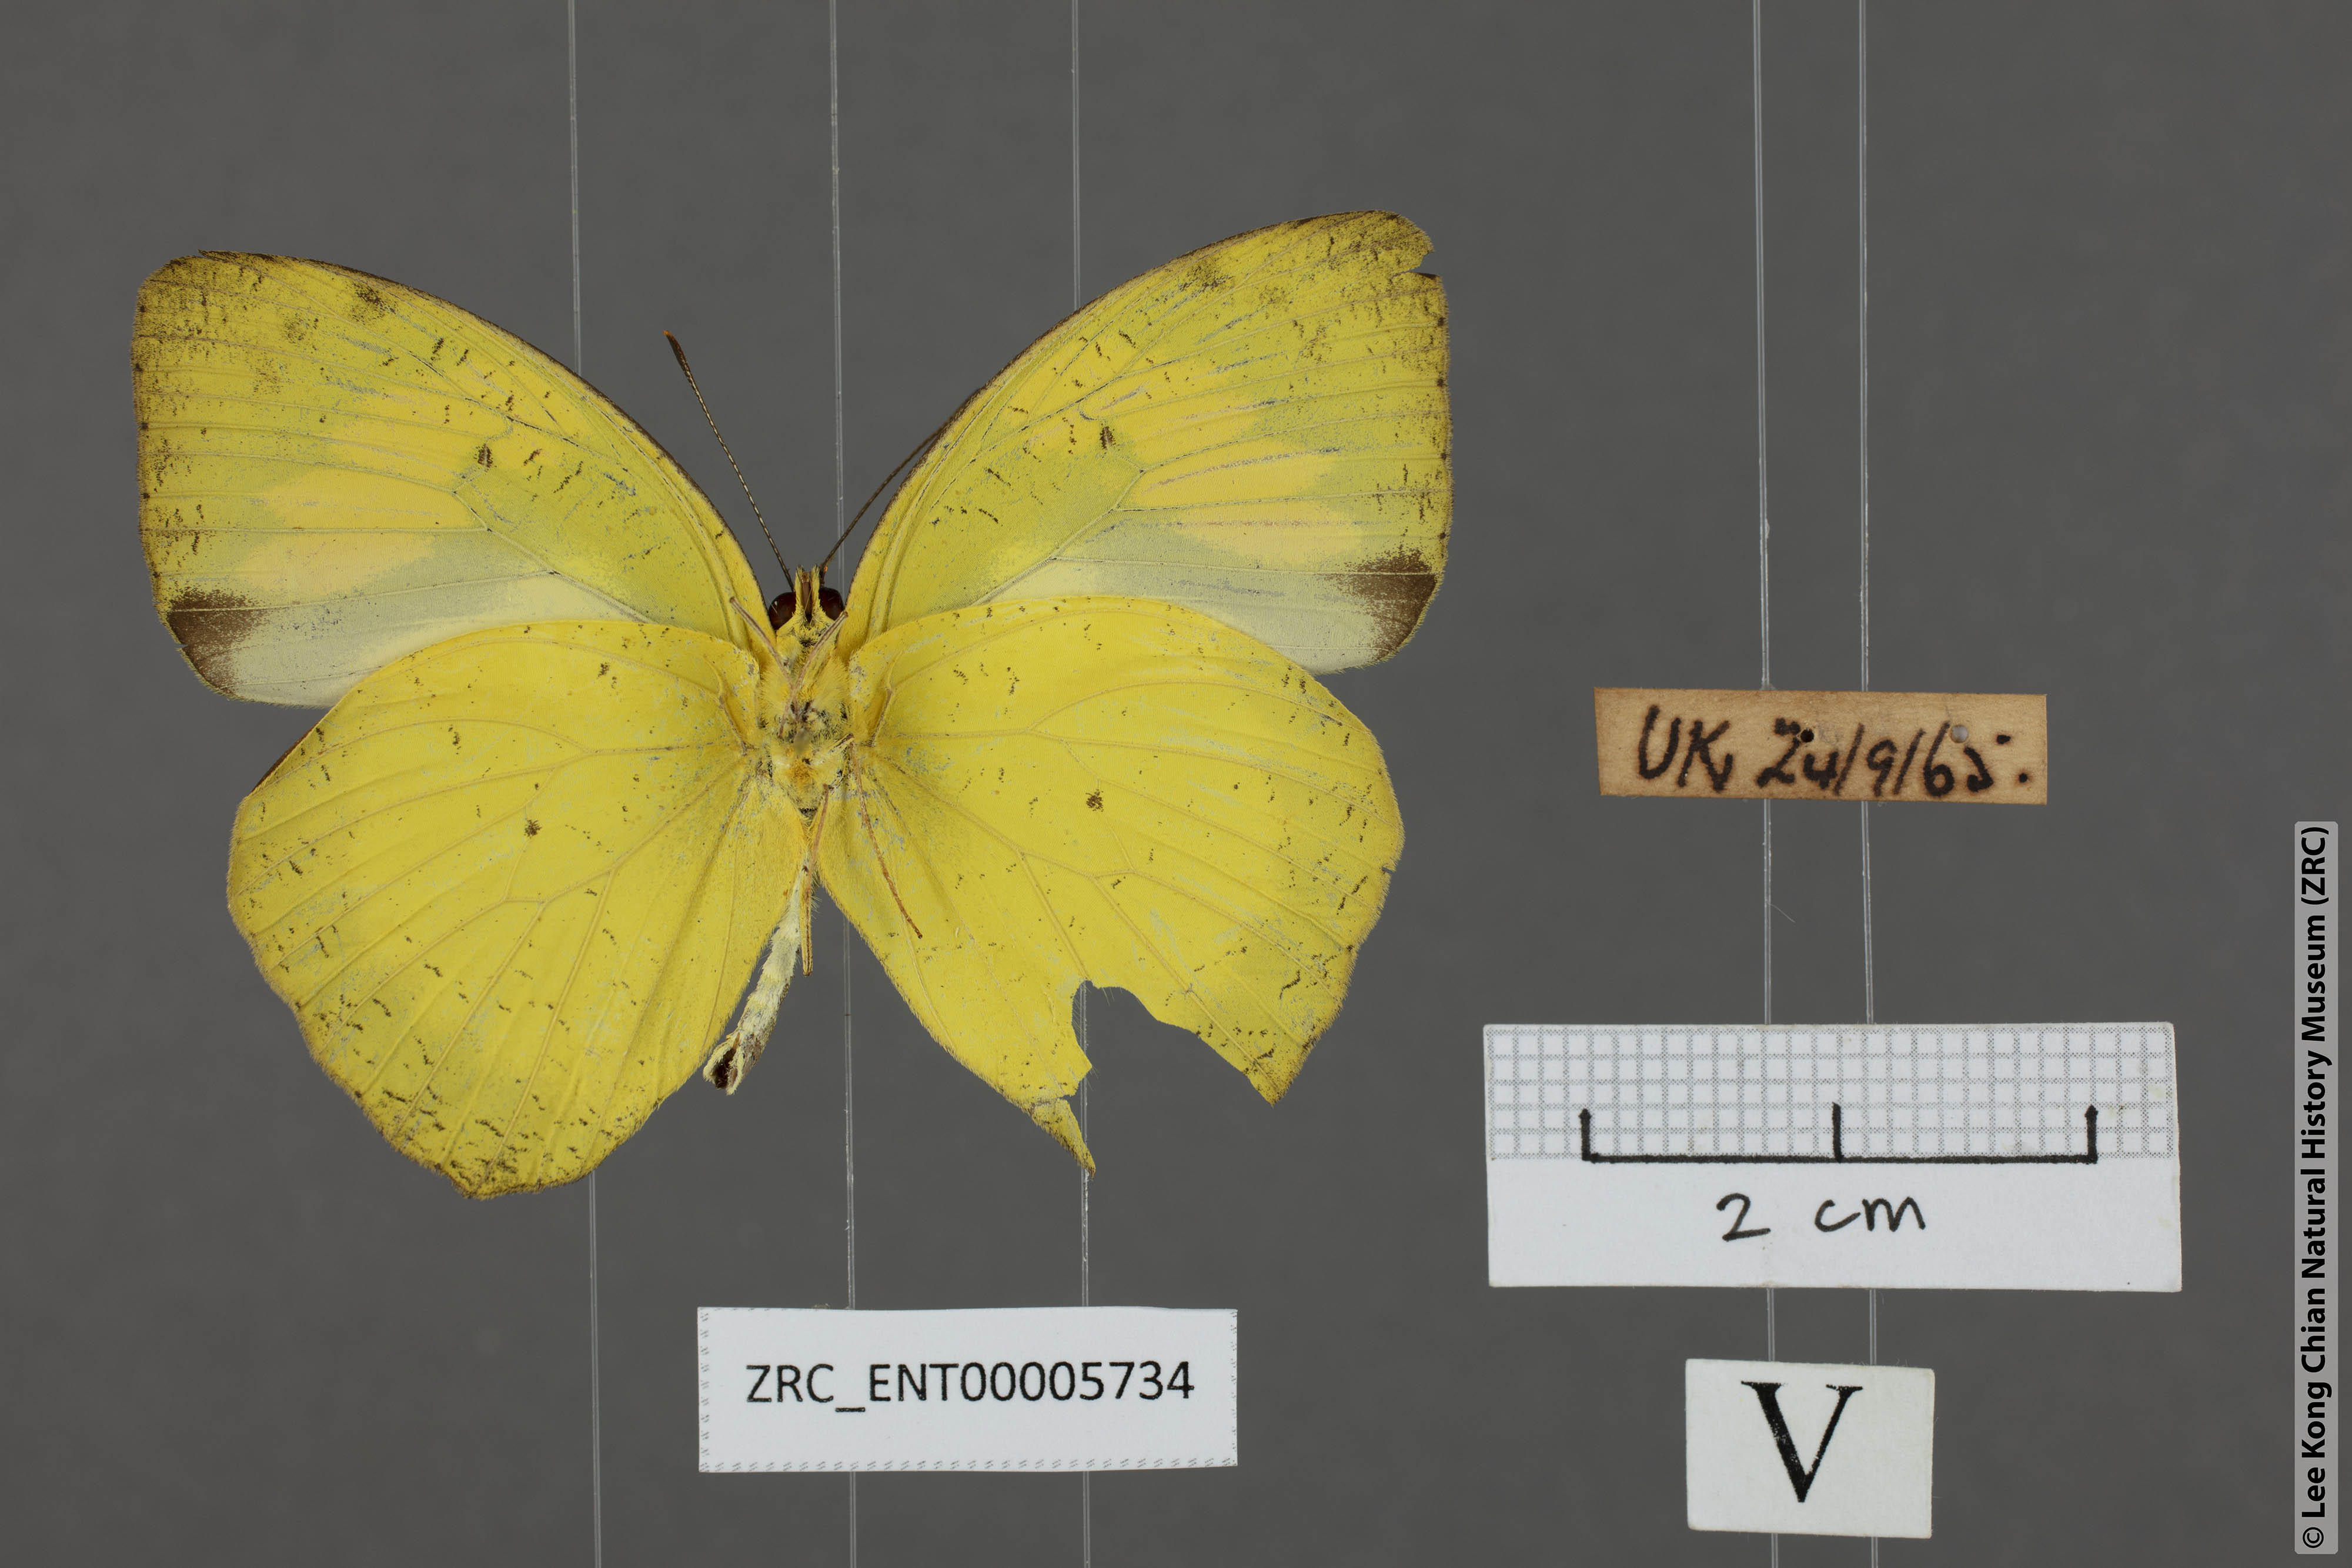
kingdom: Animalia
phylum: Arthropoda
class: Insecta
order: Lepidoptera
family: Pieridae
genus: Ixias
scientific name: Ixias pyrene
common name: Yellow orange tip
